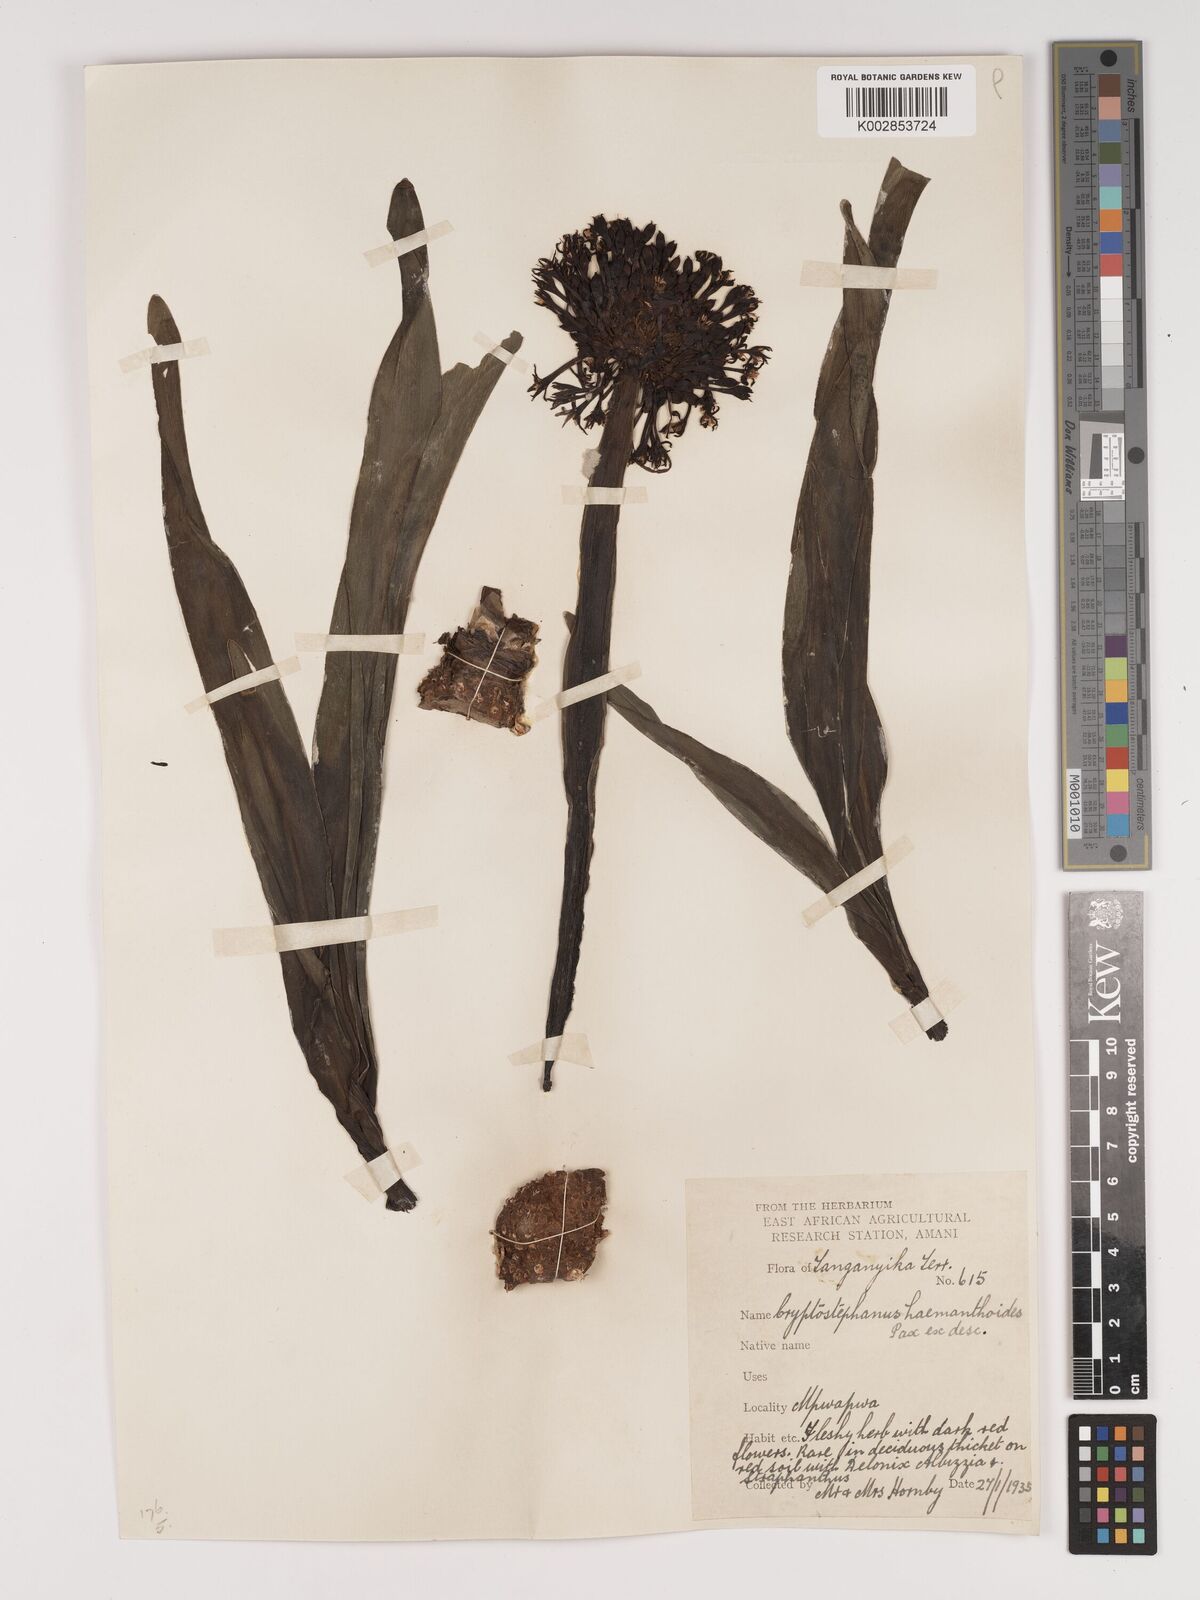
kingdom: Plantae
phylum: Tracheophyta
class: Liliopsida
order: Asparagales
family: Amaryllidaceae
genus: Cryptostephanus
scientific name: Cryptostephanus haemanthoides
